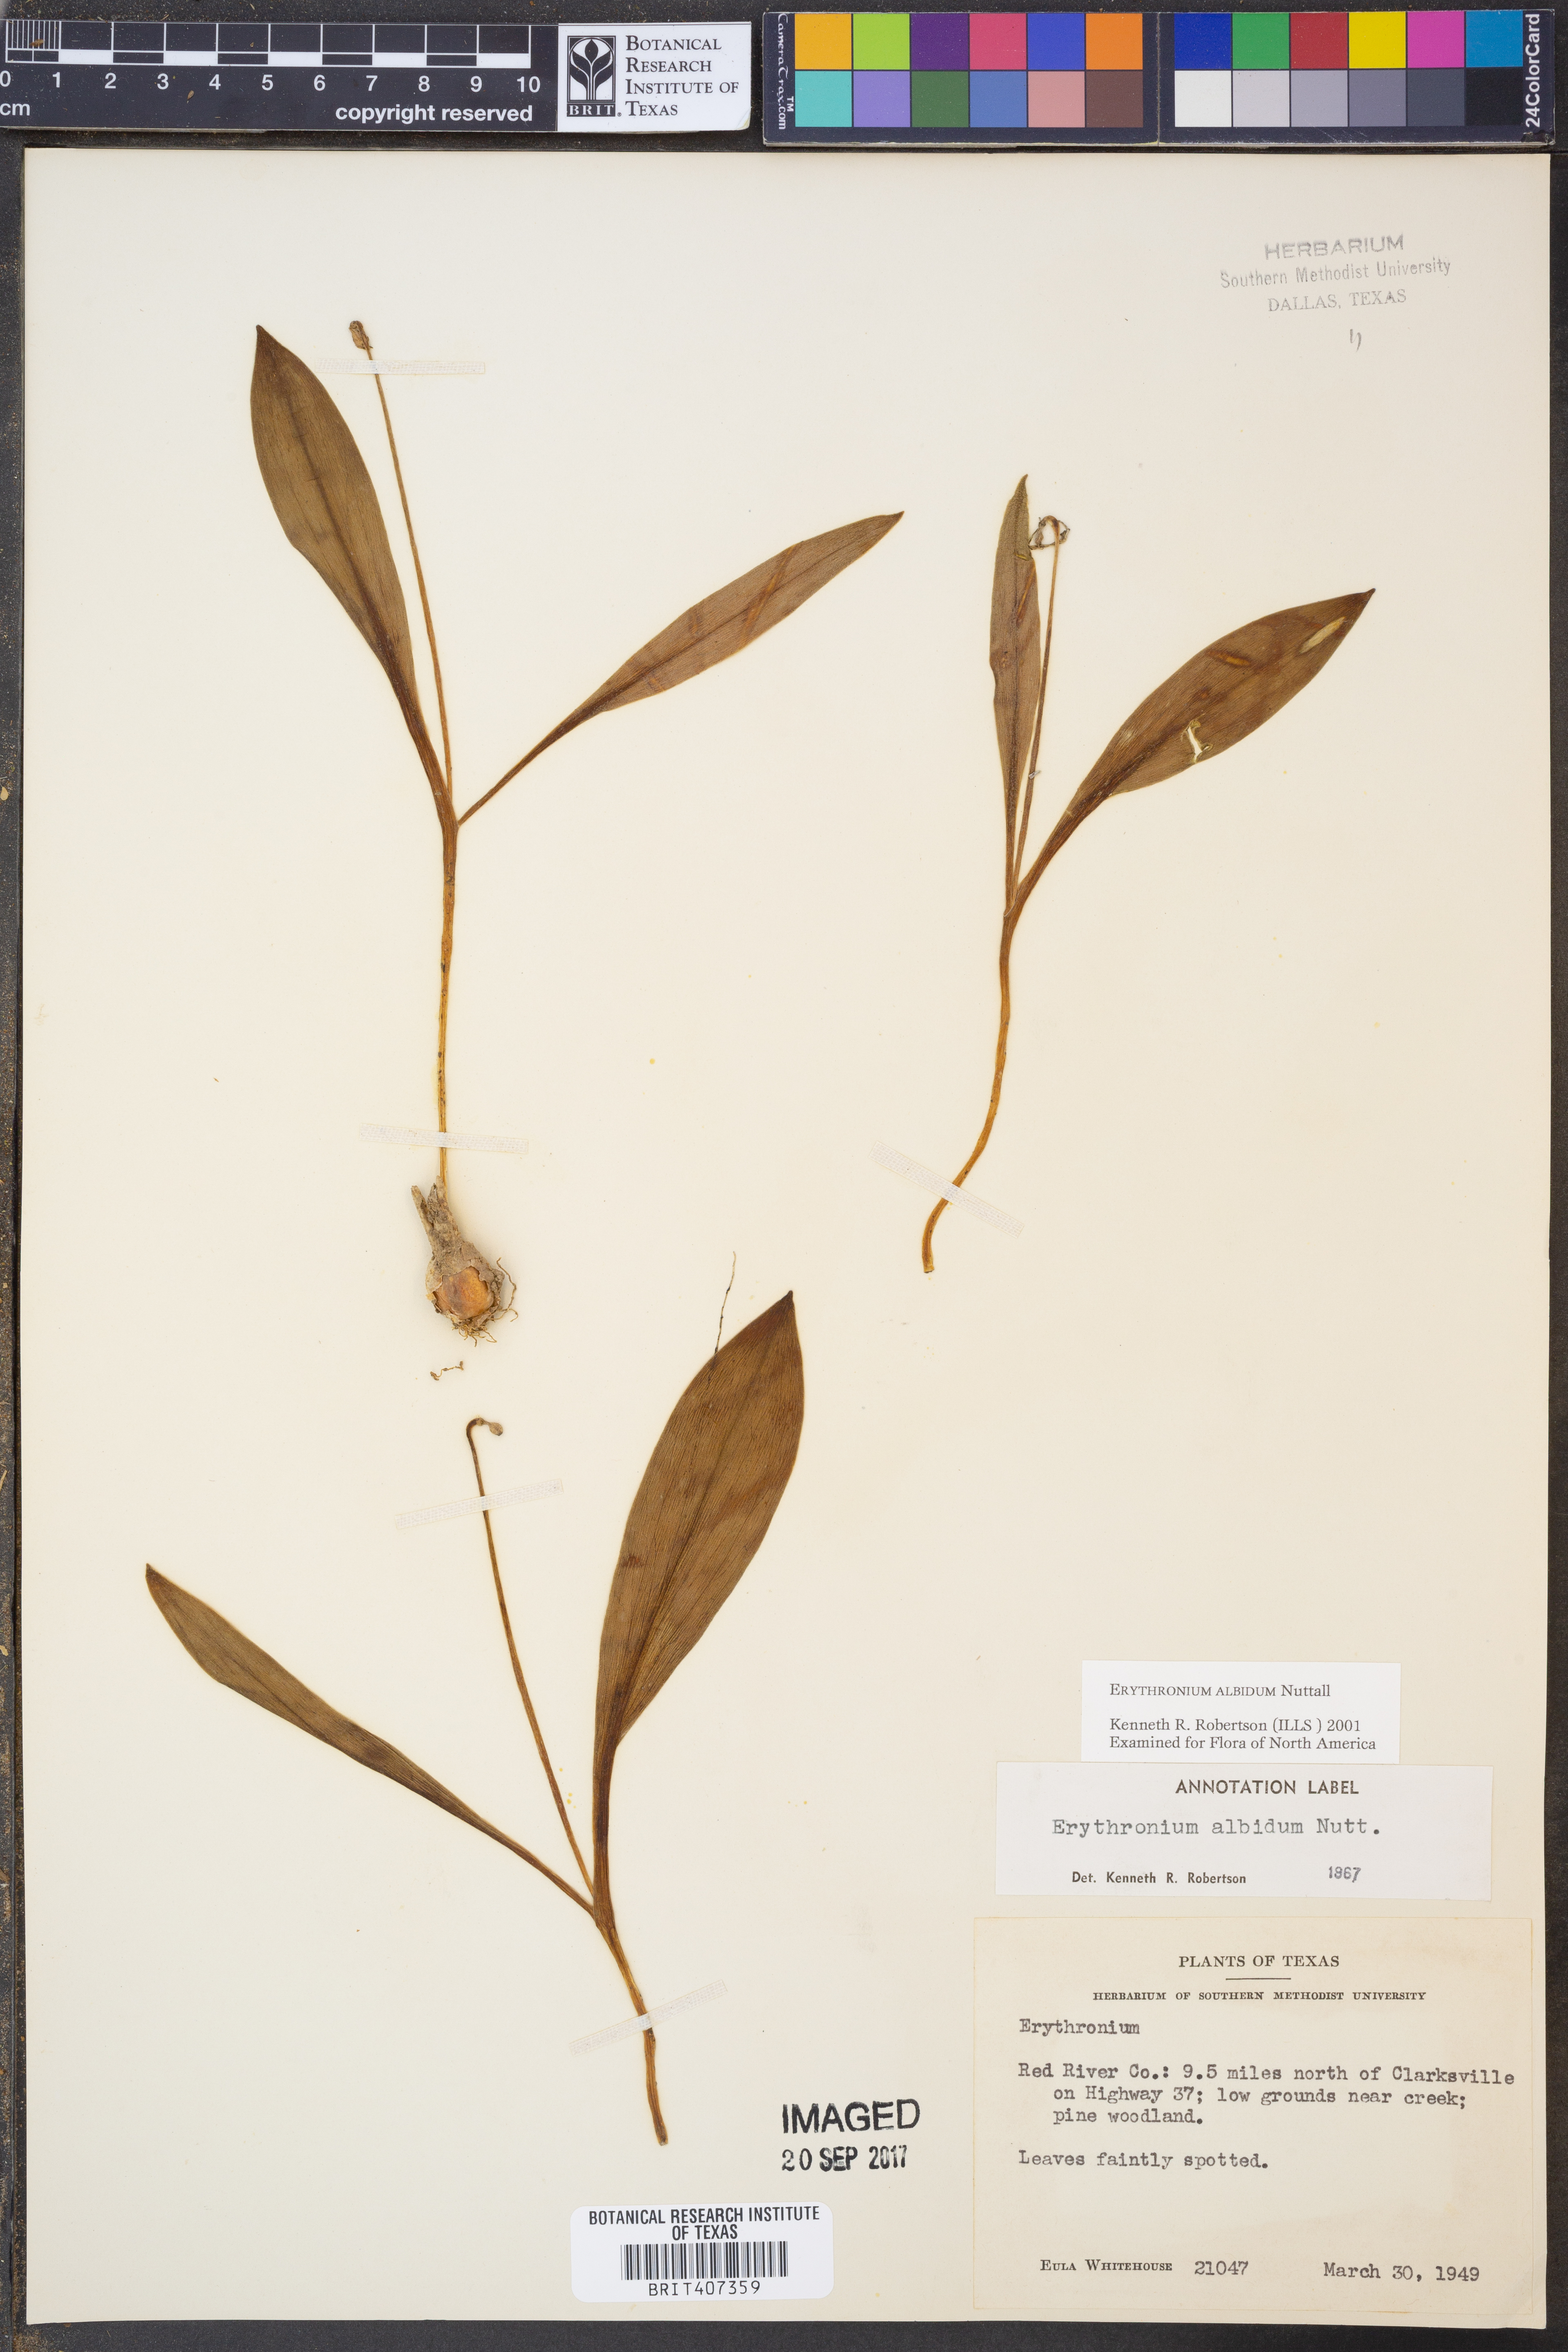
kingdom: Plantae
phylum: Tracheophyta
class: Liliopsida
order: Liliales
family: Liliaceae
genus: Erythronium
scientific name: Erythronium albidum
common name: White trout-lily
